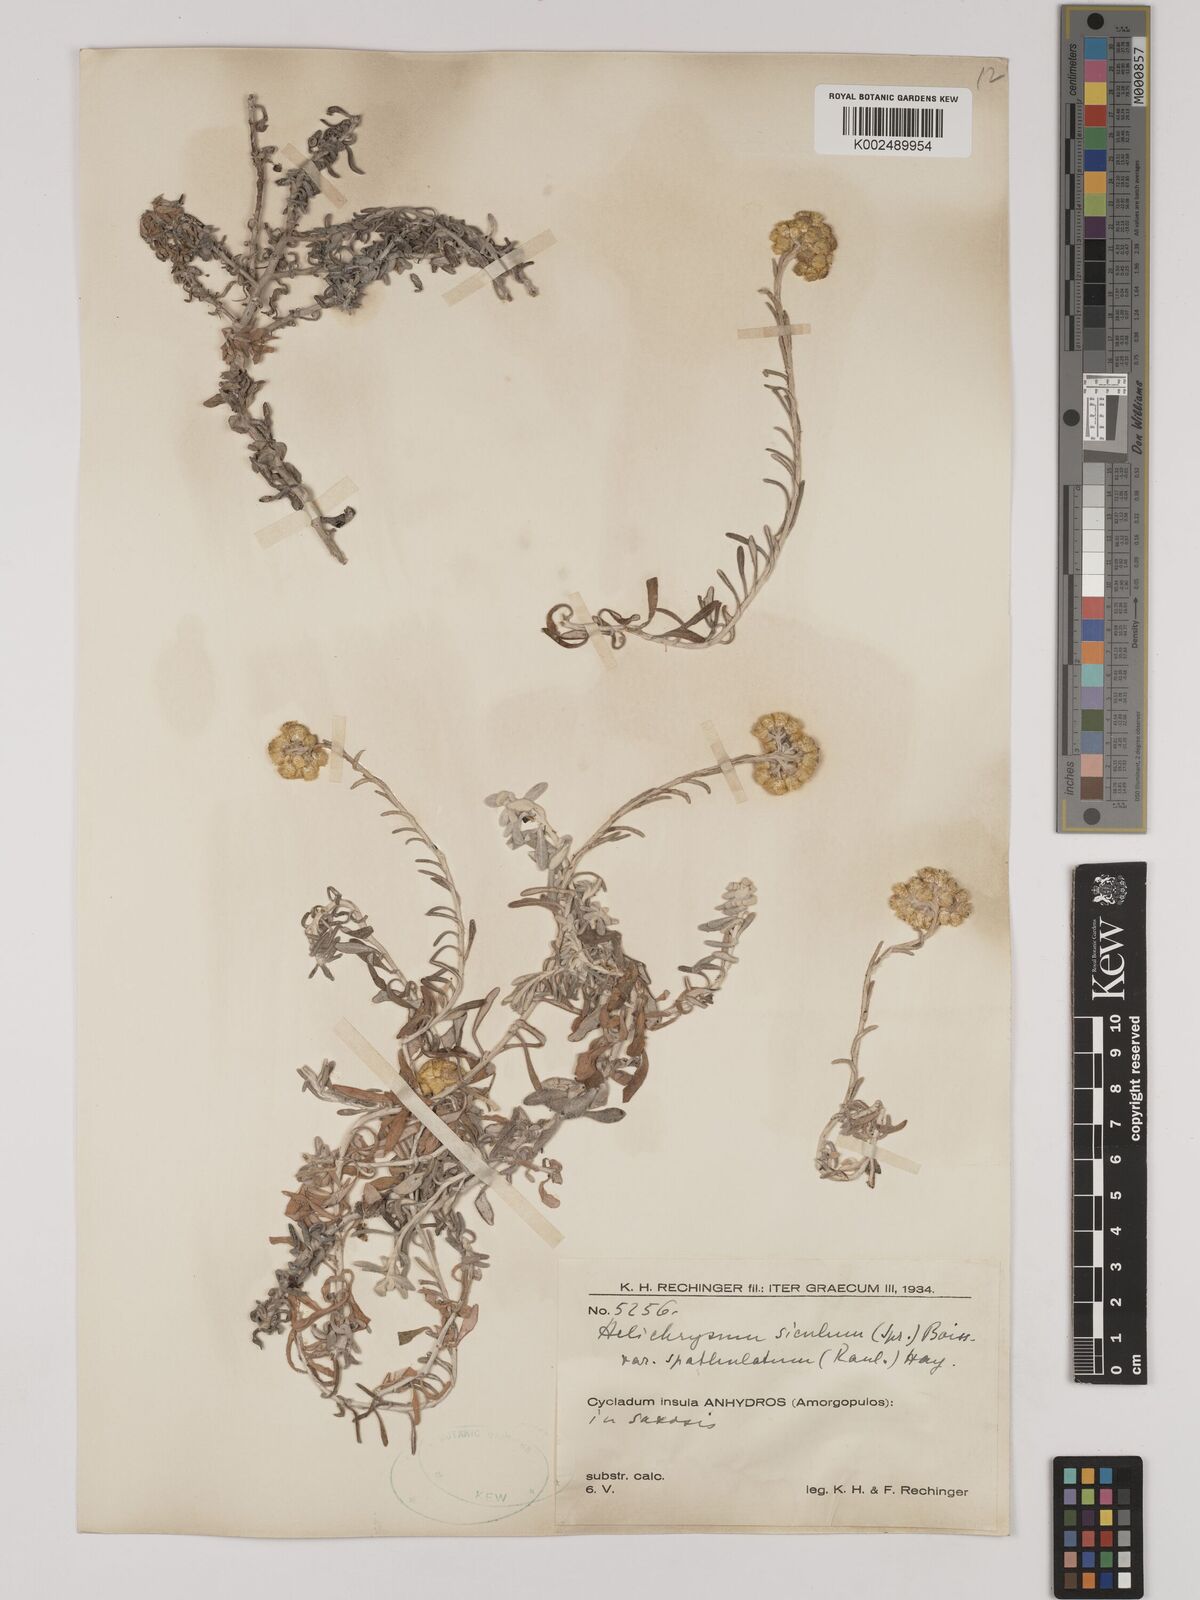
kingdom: Plantae
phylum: Tracheophyta
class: Magnoliopsida
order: Asterales
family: Asteraceae
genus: Helichrysum
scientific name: Helichrysum italicum
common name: Curryplant
